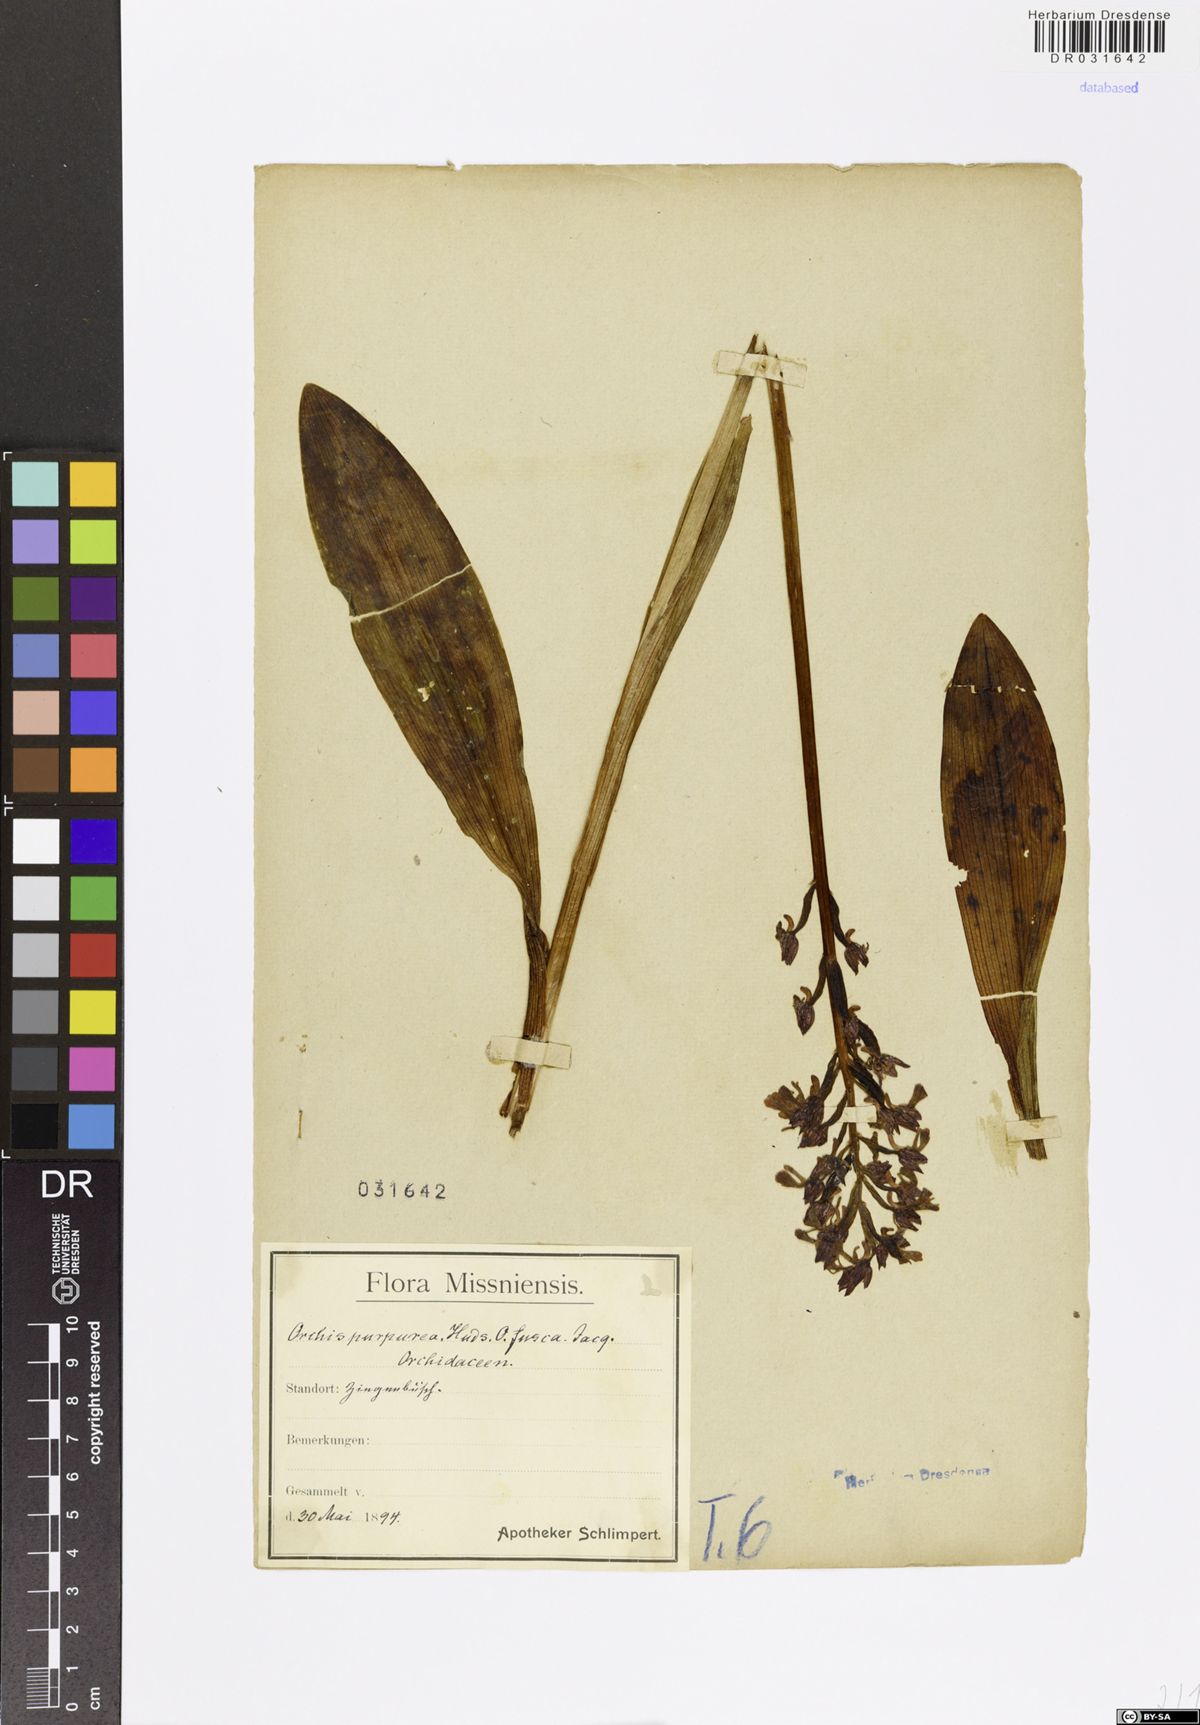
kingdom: Plantae
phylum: Tracheophyta
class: Liliopsida
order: Asparagales
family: Orchidaceae
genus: Orchis
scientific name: Orchis purpurea
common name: Lady orchid
